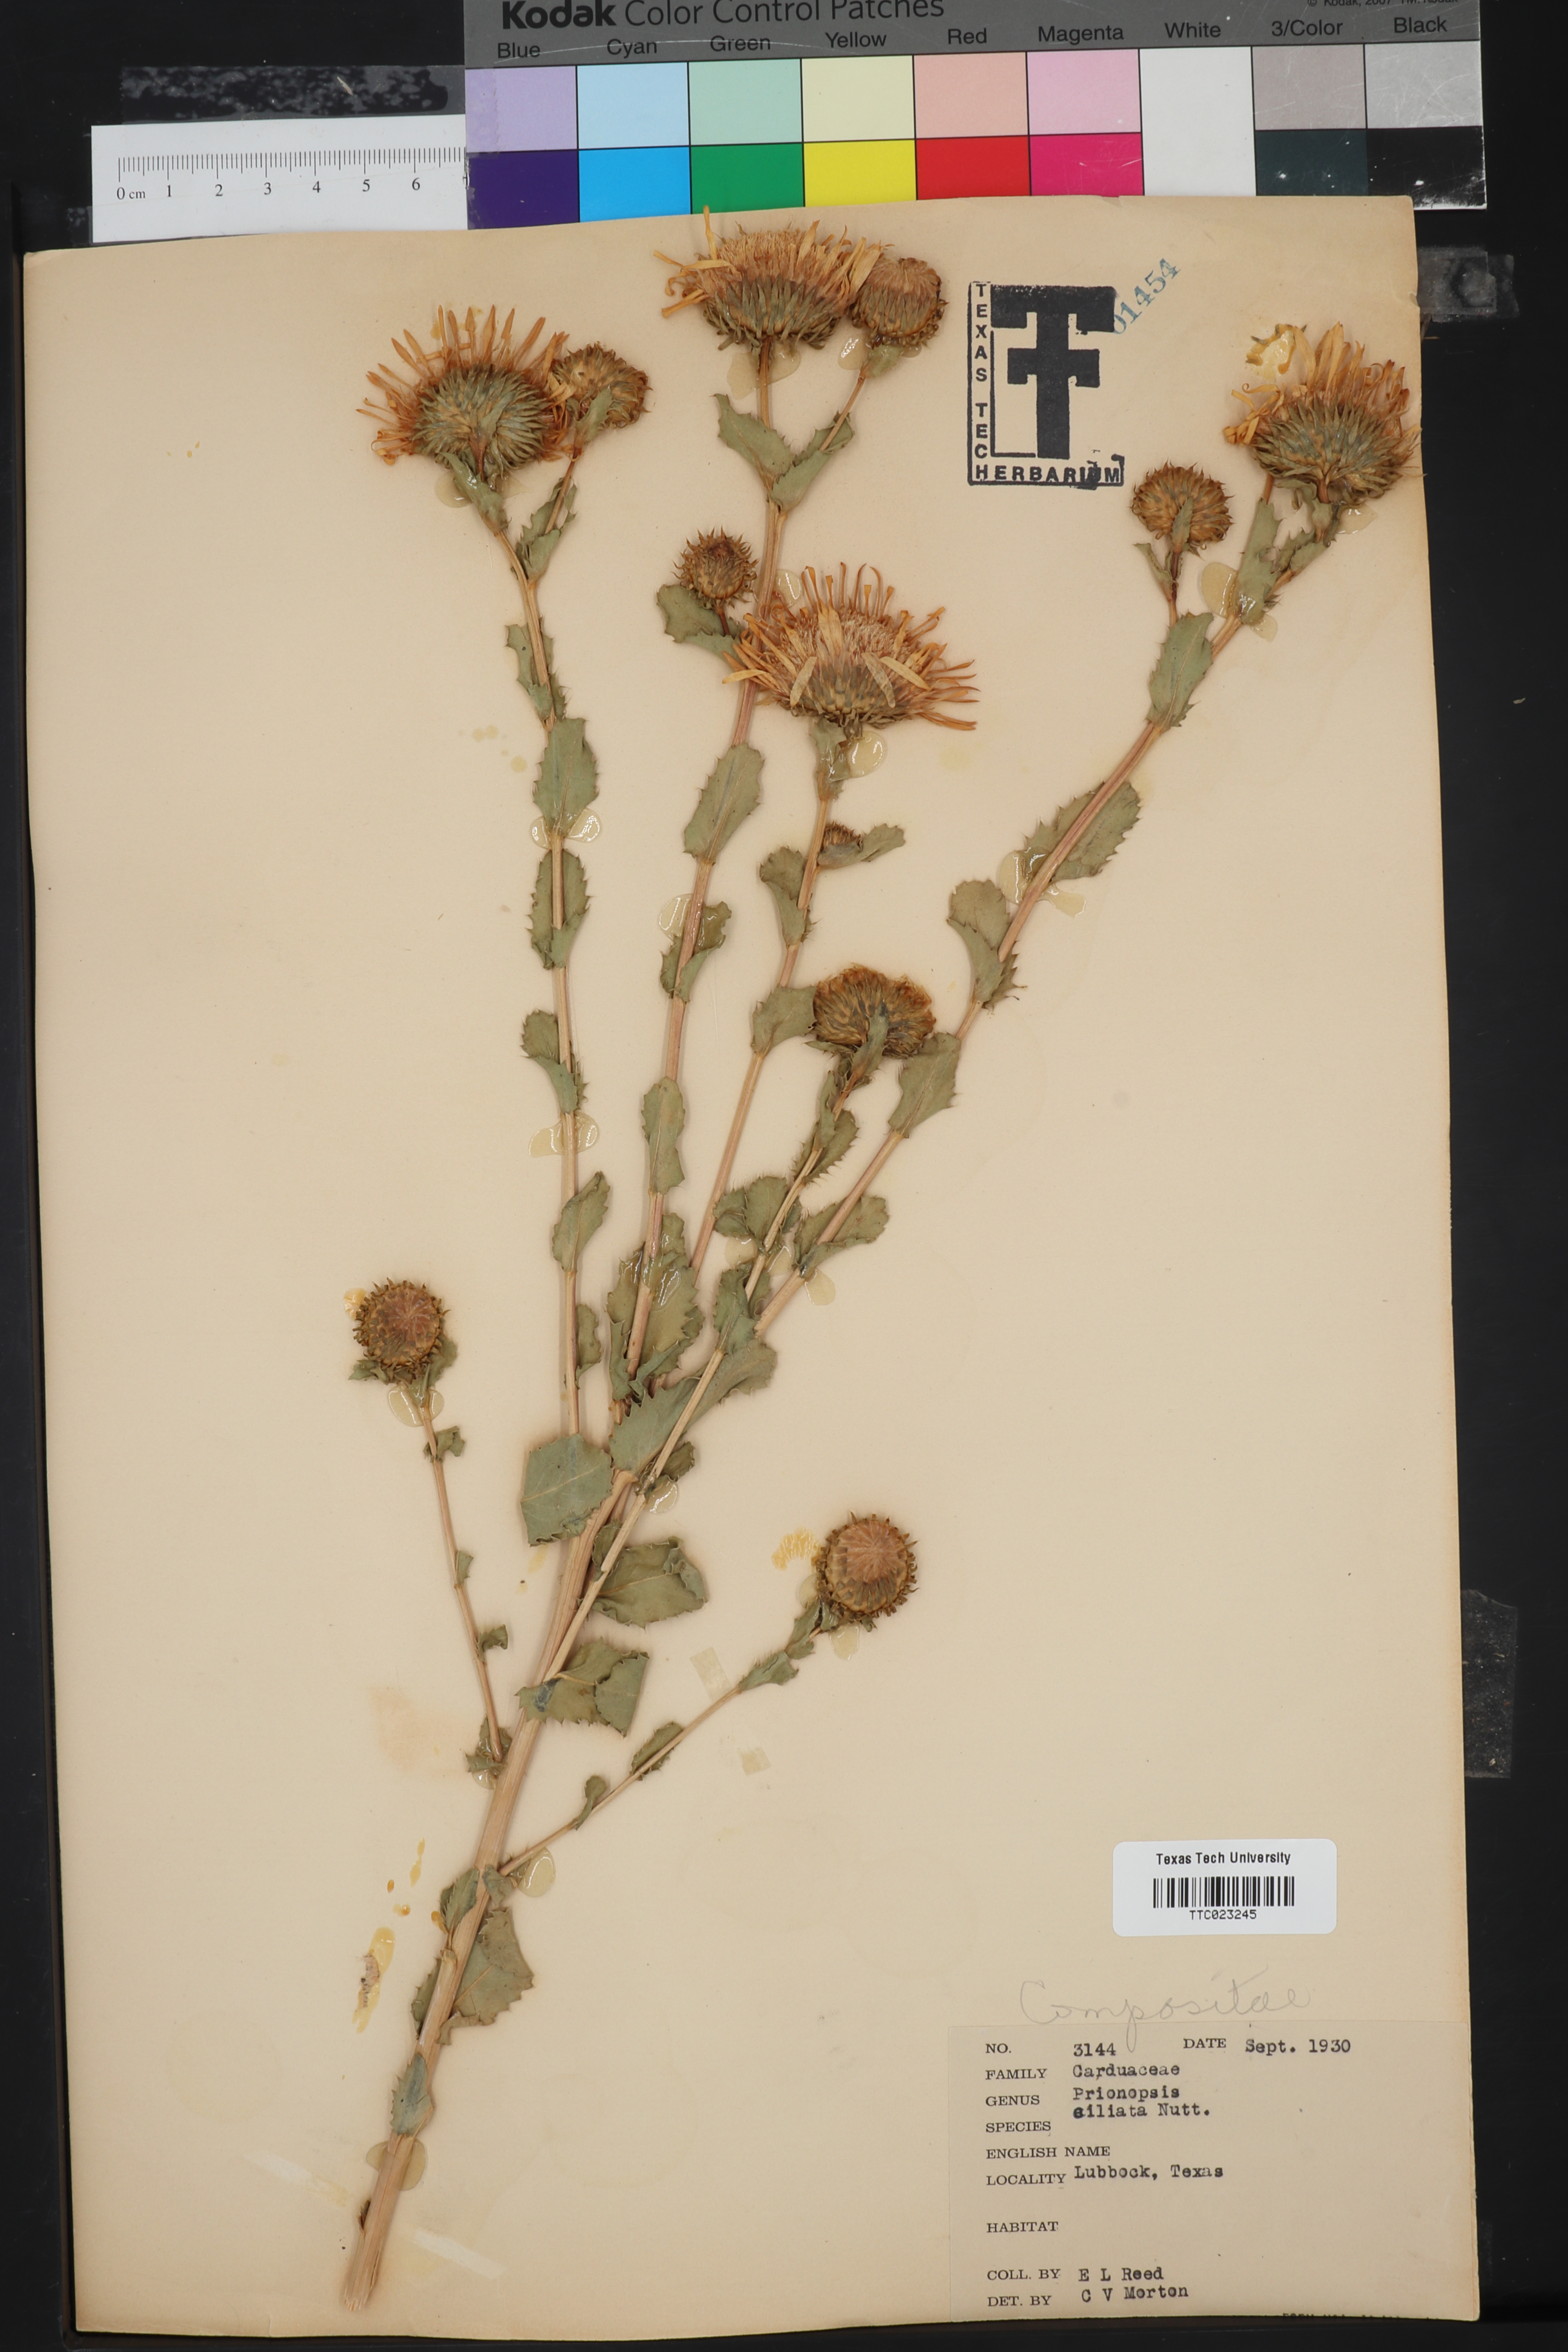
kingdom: Plantae
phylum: Tracheophyta
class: Magnoliopsida
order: Asterales
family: Asteraceae
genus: Grindelia
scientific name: Grindelia ciliata
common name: Goldenweed
